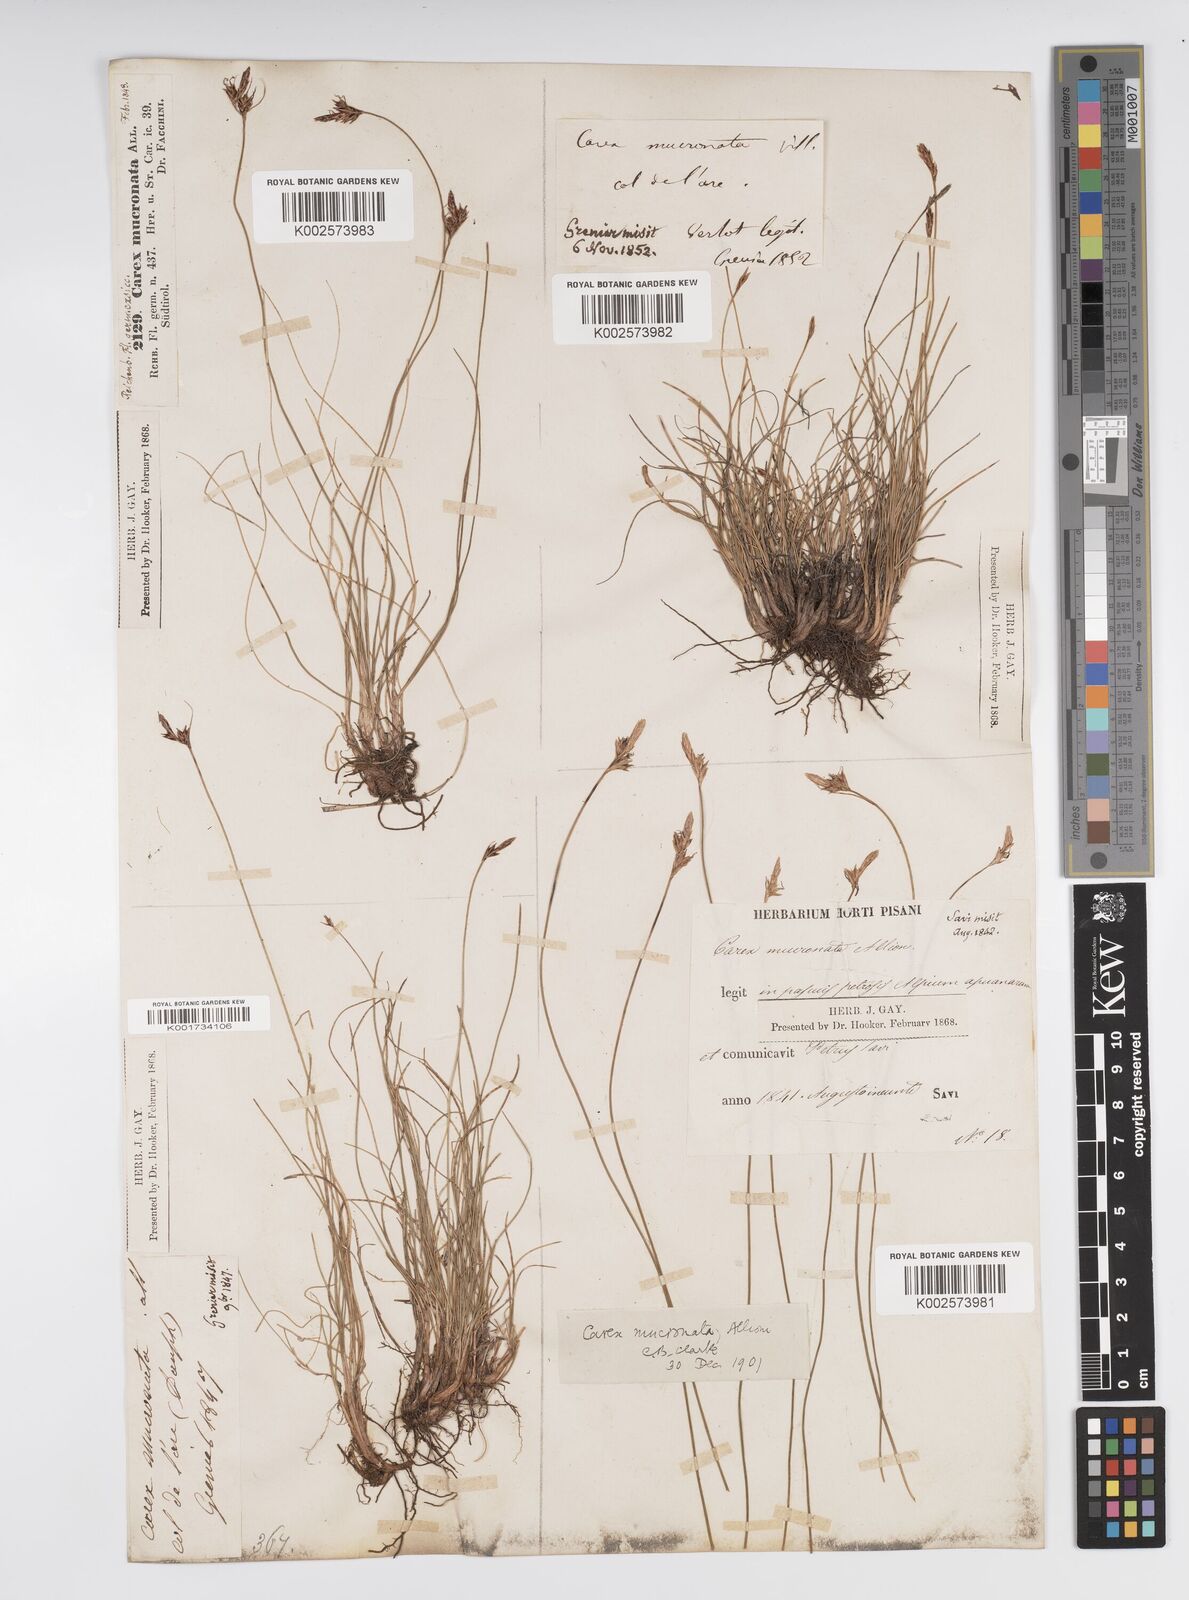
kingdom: Plantae
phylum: Tracheophyta
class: Liliopsida
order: Poales
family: Cyperaceae
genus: Carex
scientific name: Carex mucronata
